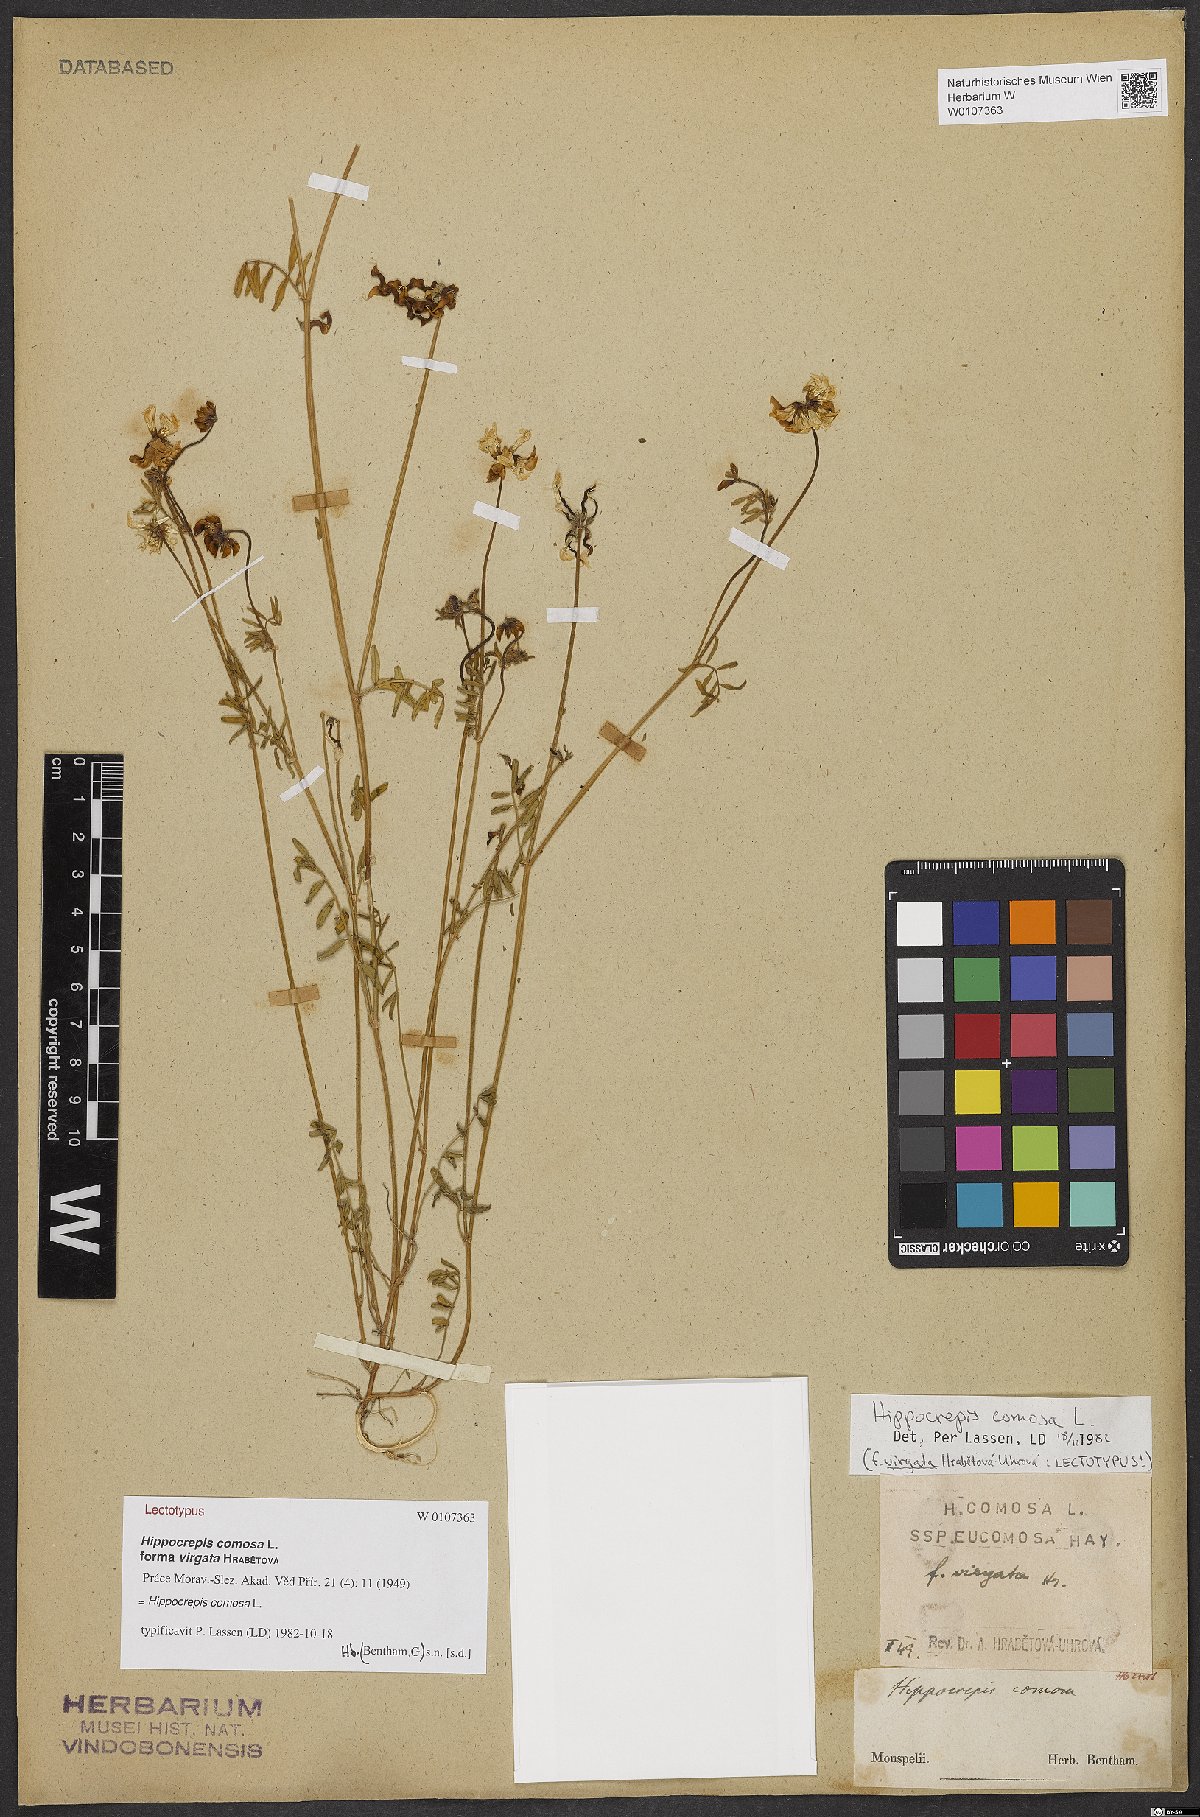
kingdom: Plantae
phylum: Tracheophyta
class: Magnoliopsida
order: Fabales
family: Fabaceae
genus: Hippocrepis
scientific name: Hippocrepis comosa
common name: Horseshoe vetch
